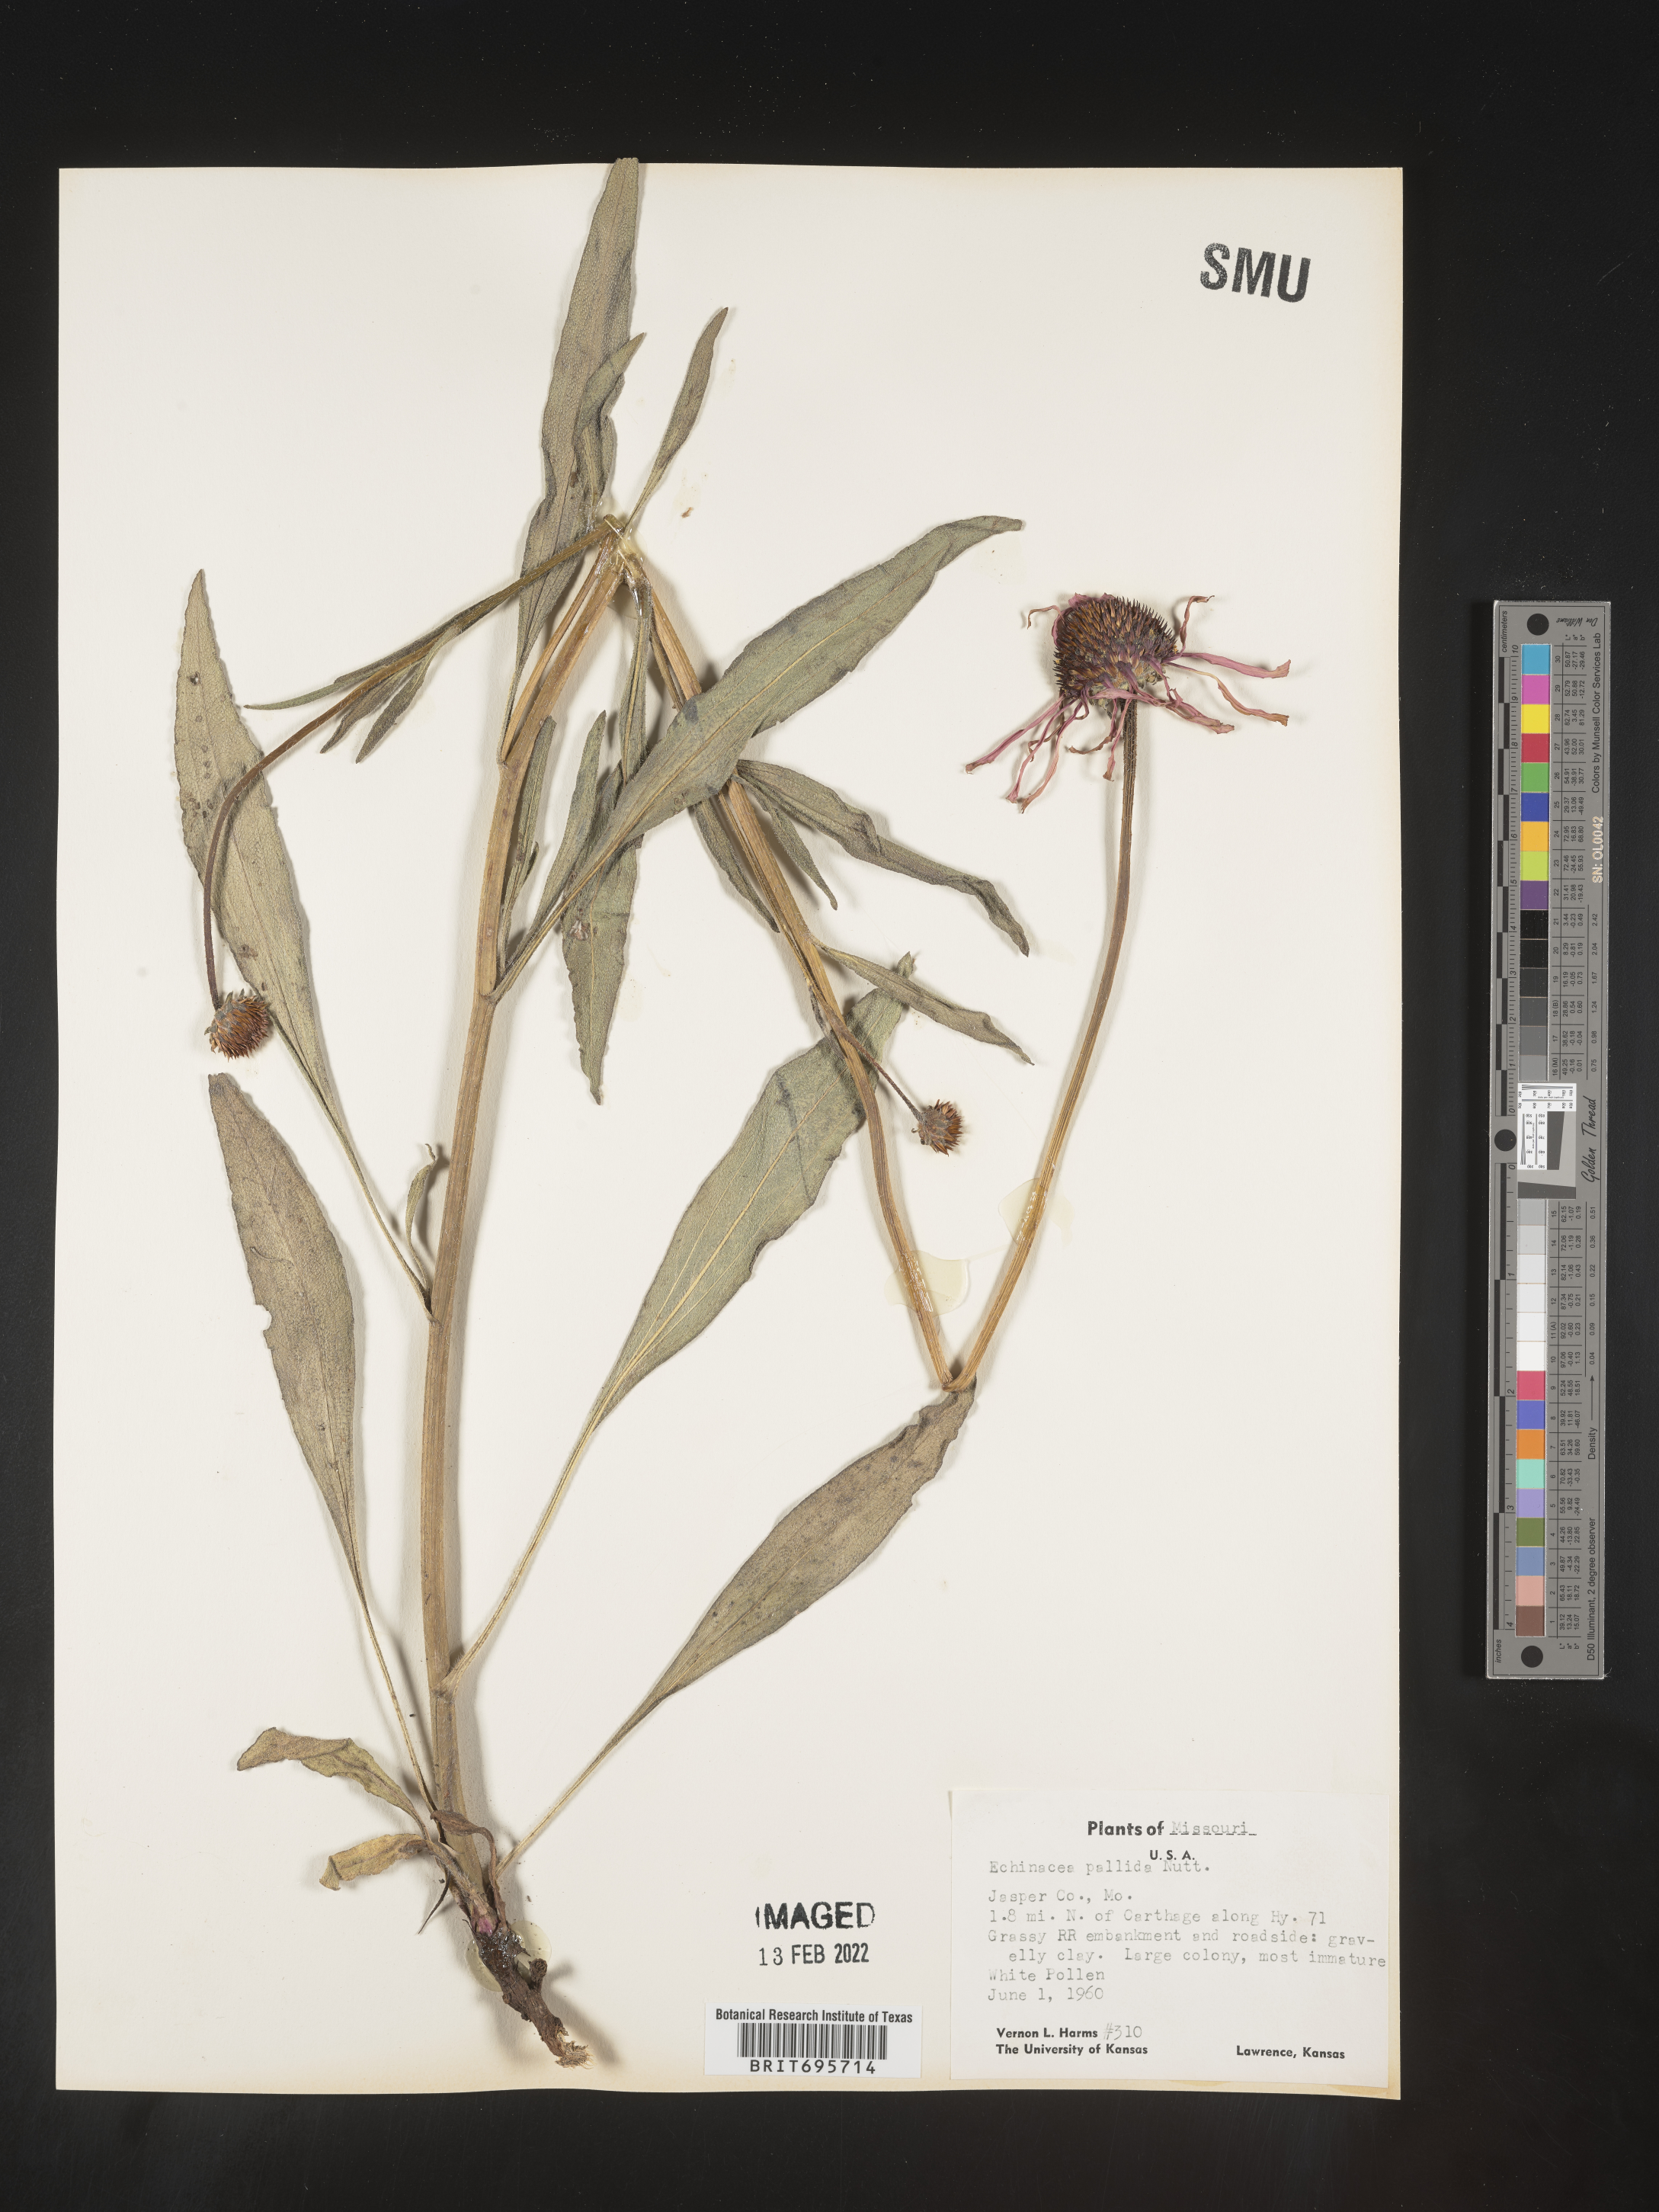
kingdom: Plantae
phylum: Tracheophyta
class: Magnoliopsida
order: Asterales
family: Asteraceae
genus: Echinacea
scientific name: Echinacea pallida
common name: Pale echinacea
